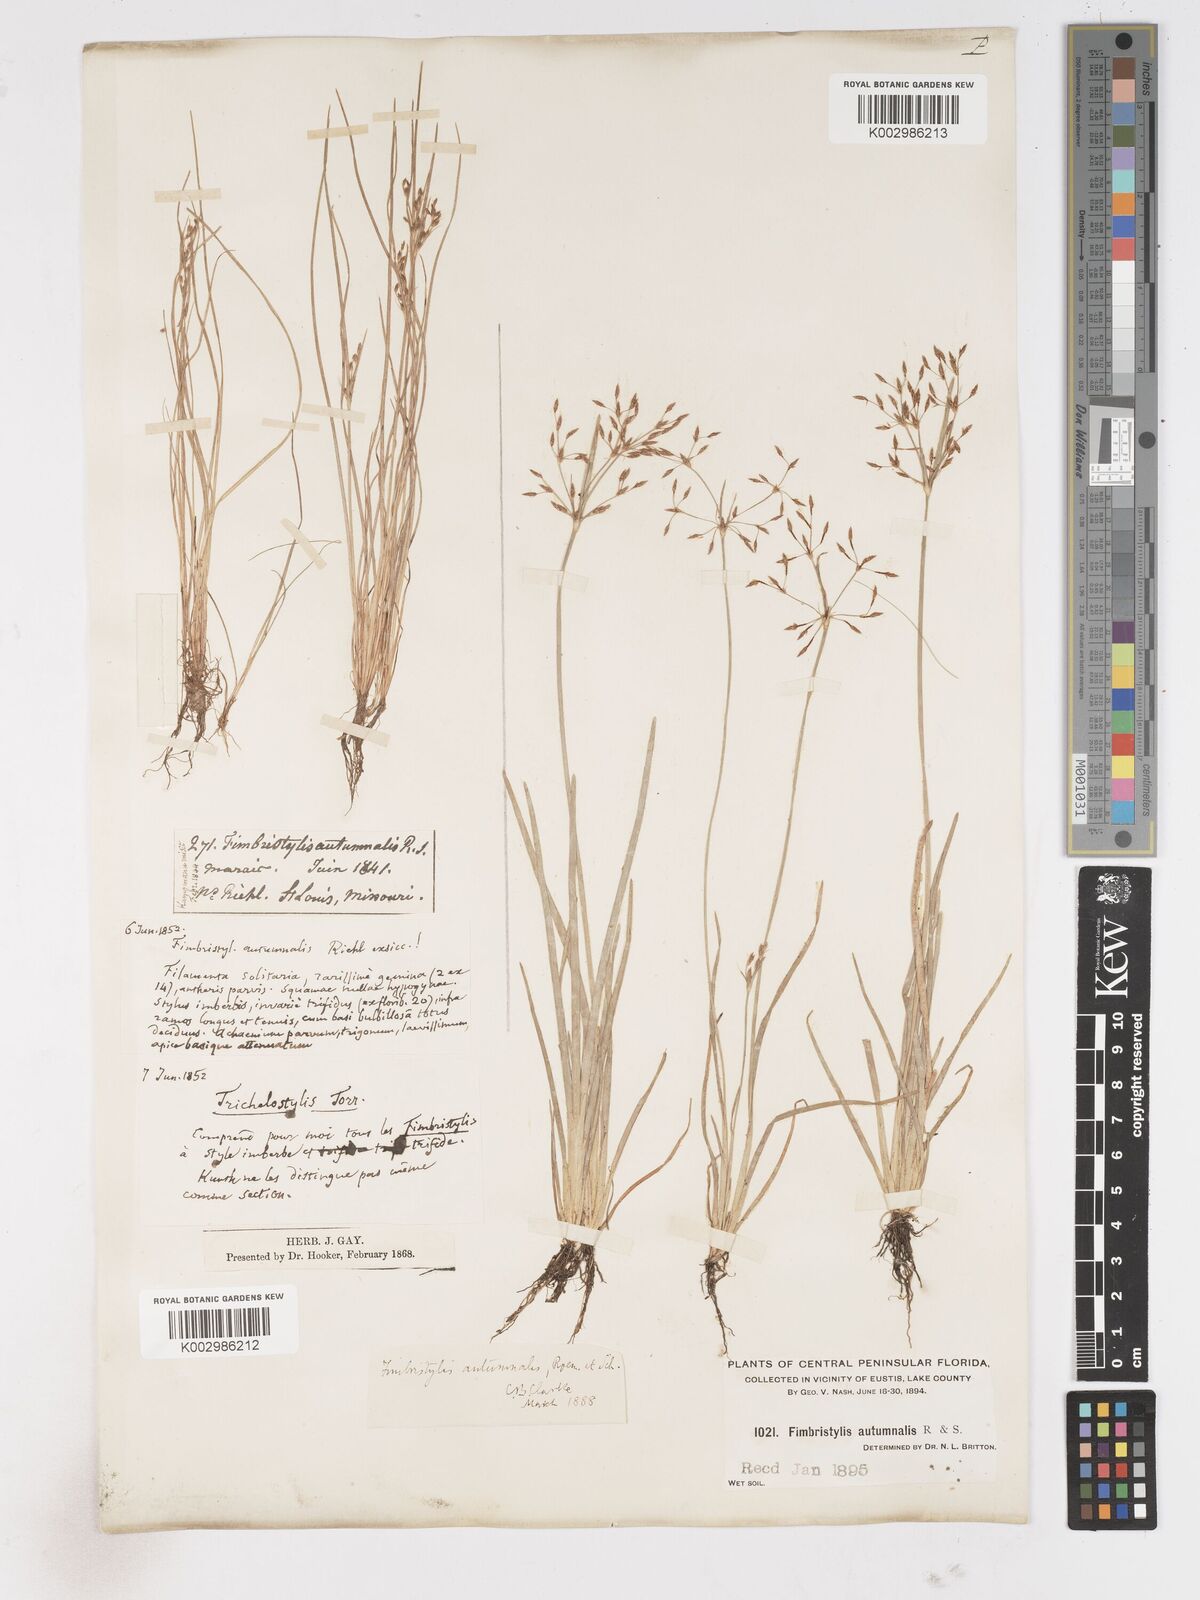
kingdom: Plantae
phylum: Tracheophyta
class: Liliopsida
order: Poales
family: Cyperaceae
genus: Fimbristylis
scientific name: Fimbristylis autumnalis
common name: Slender fimbristylis
